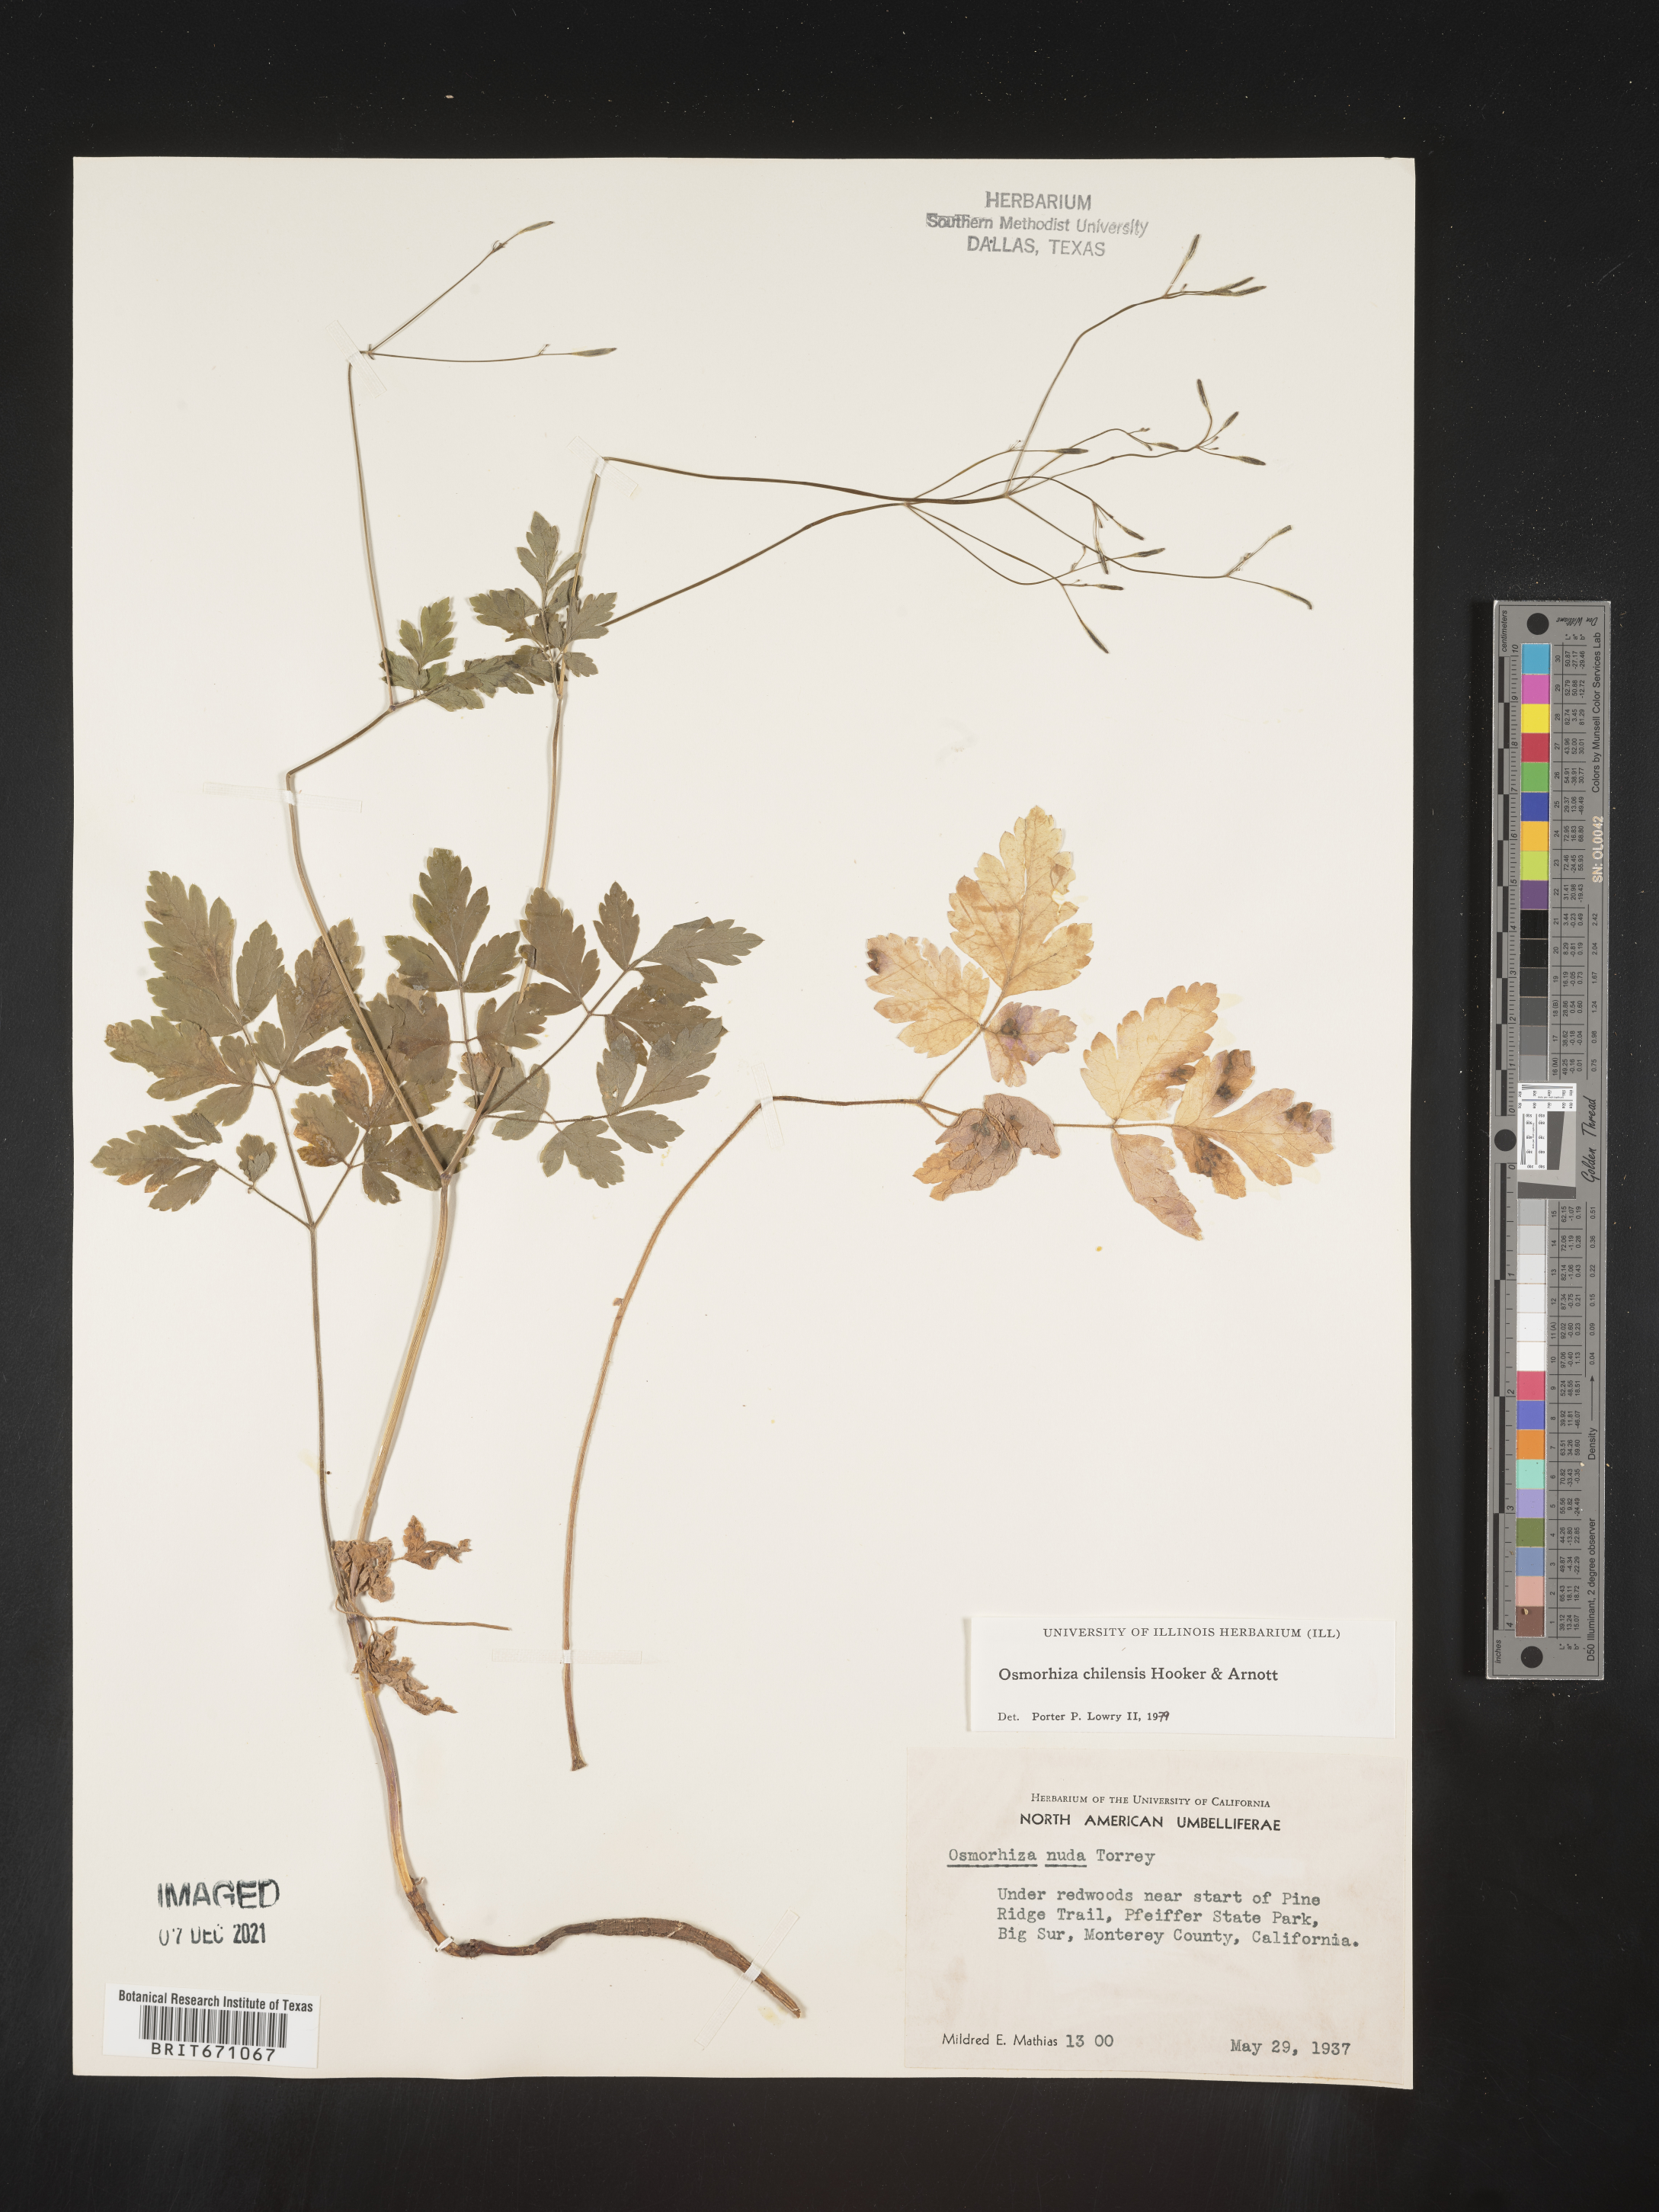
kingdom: Plantae
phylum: Tracheophyta
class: Magnoliopsida
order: Apiales
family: Apiaceae
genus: Osmorhiza
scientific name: Osmorhiza berteroi
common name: Mountain sweet cicely
